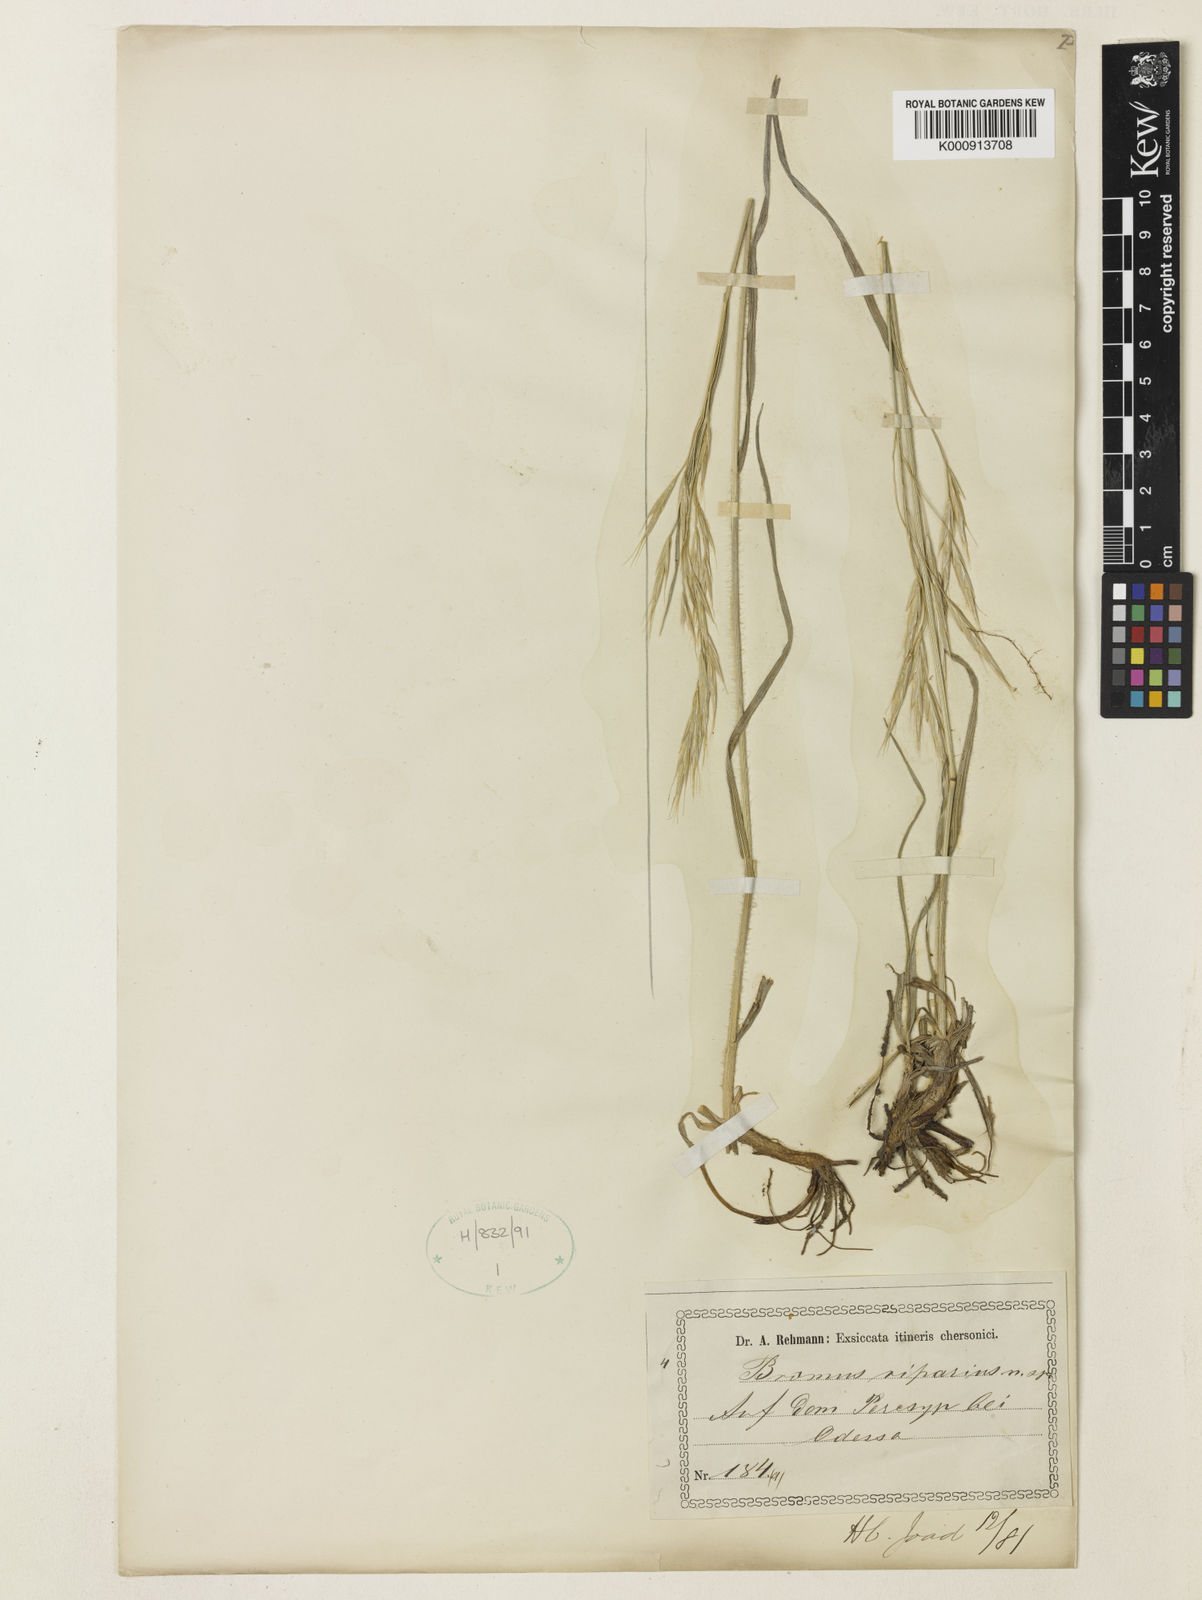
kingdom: Plantae
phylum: Tracheophyta
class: Liliopsida
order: Poales
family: Poaceae
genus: Bromus
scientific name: Bromus riparius
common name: Meadow brome
